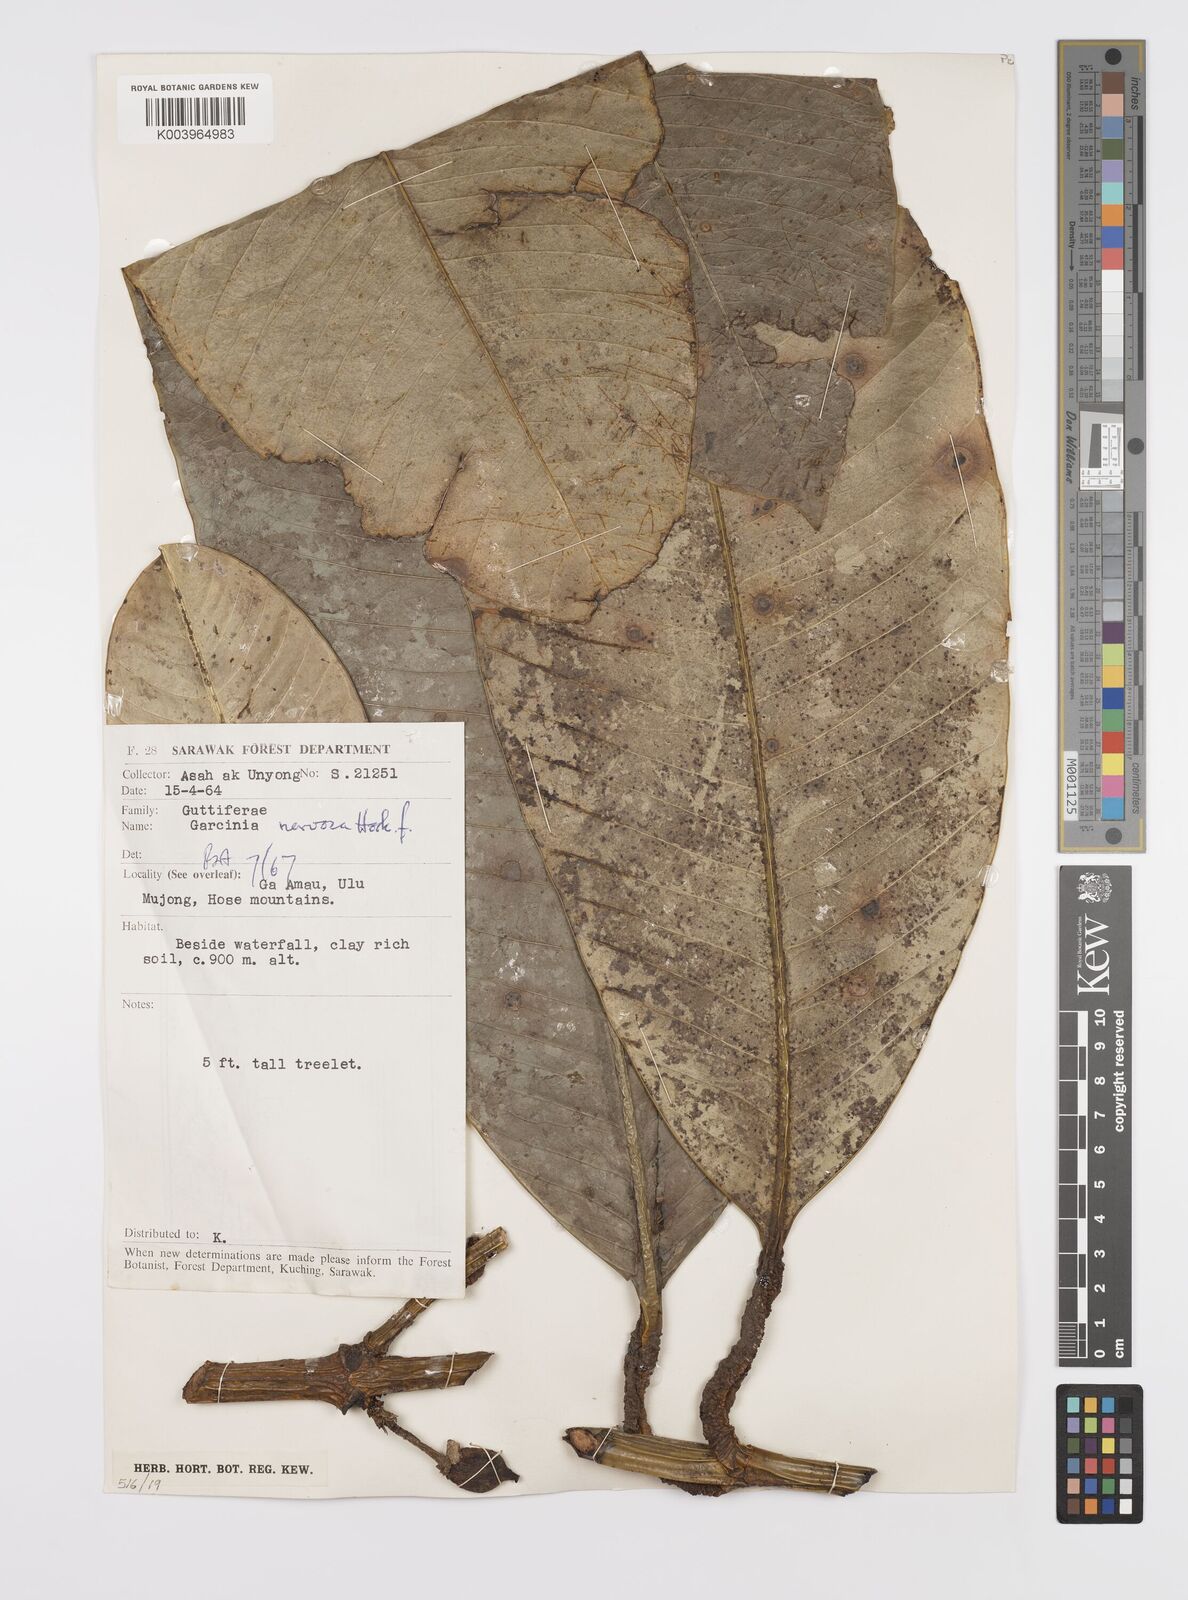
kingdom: Plantae
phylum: Tracheophyta
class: Magnoliopsida
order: Malpighiales
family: Clusiaceae
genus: Garcinia
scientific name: Garcinia nervosa
